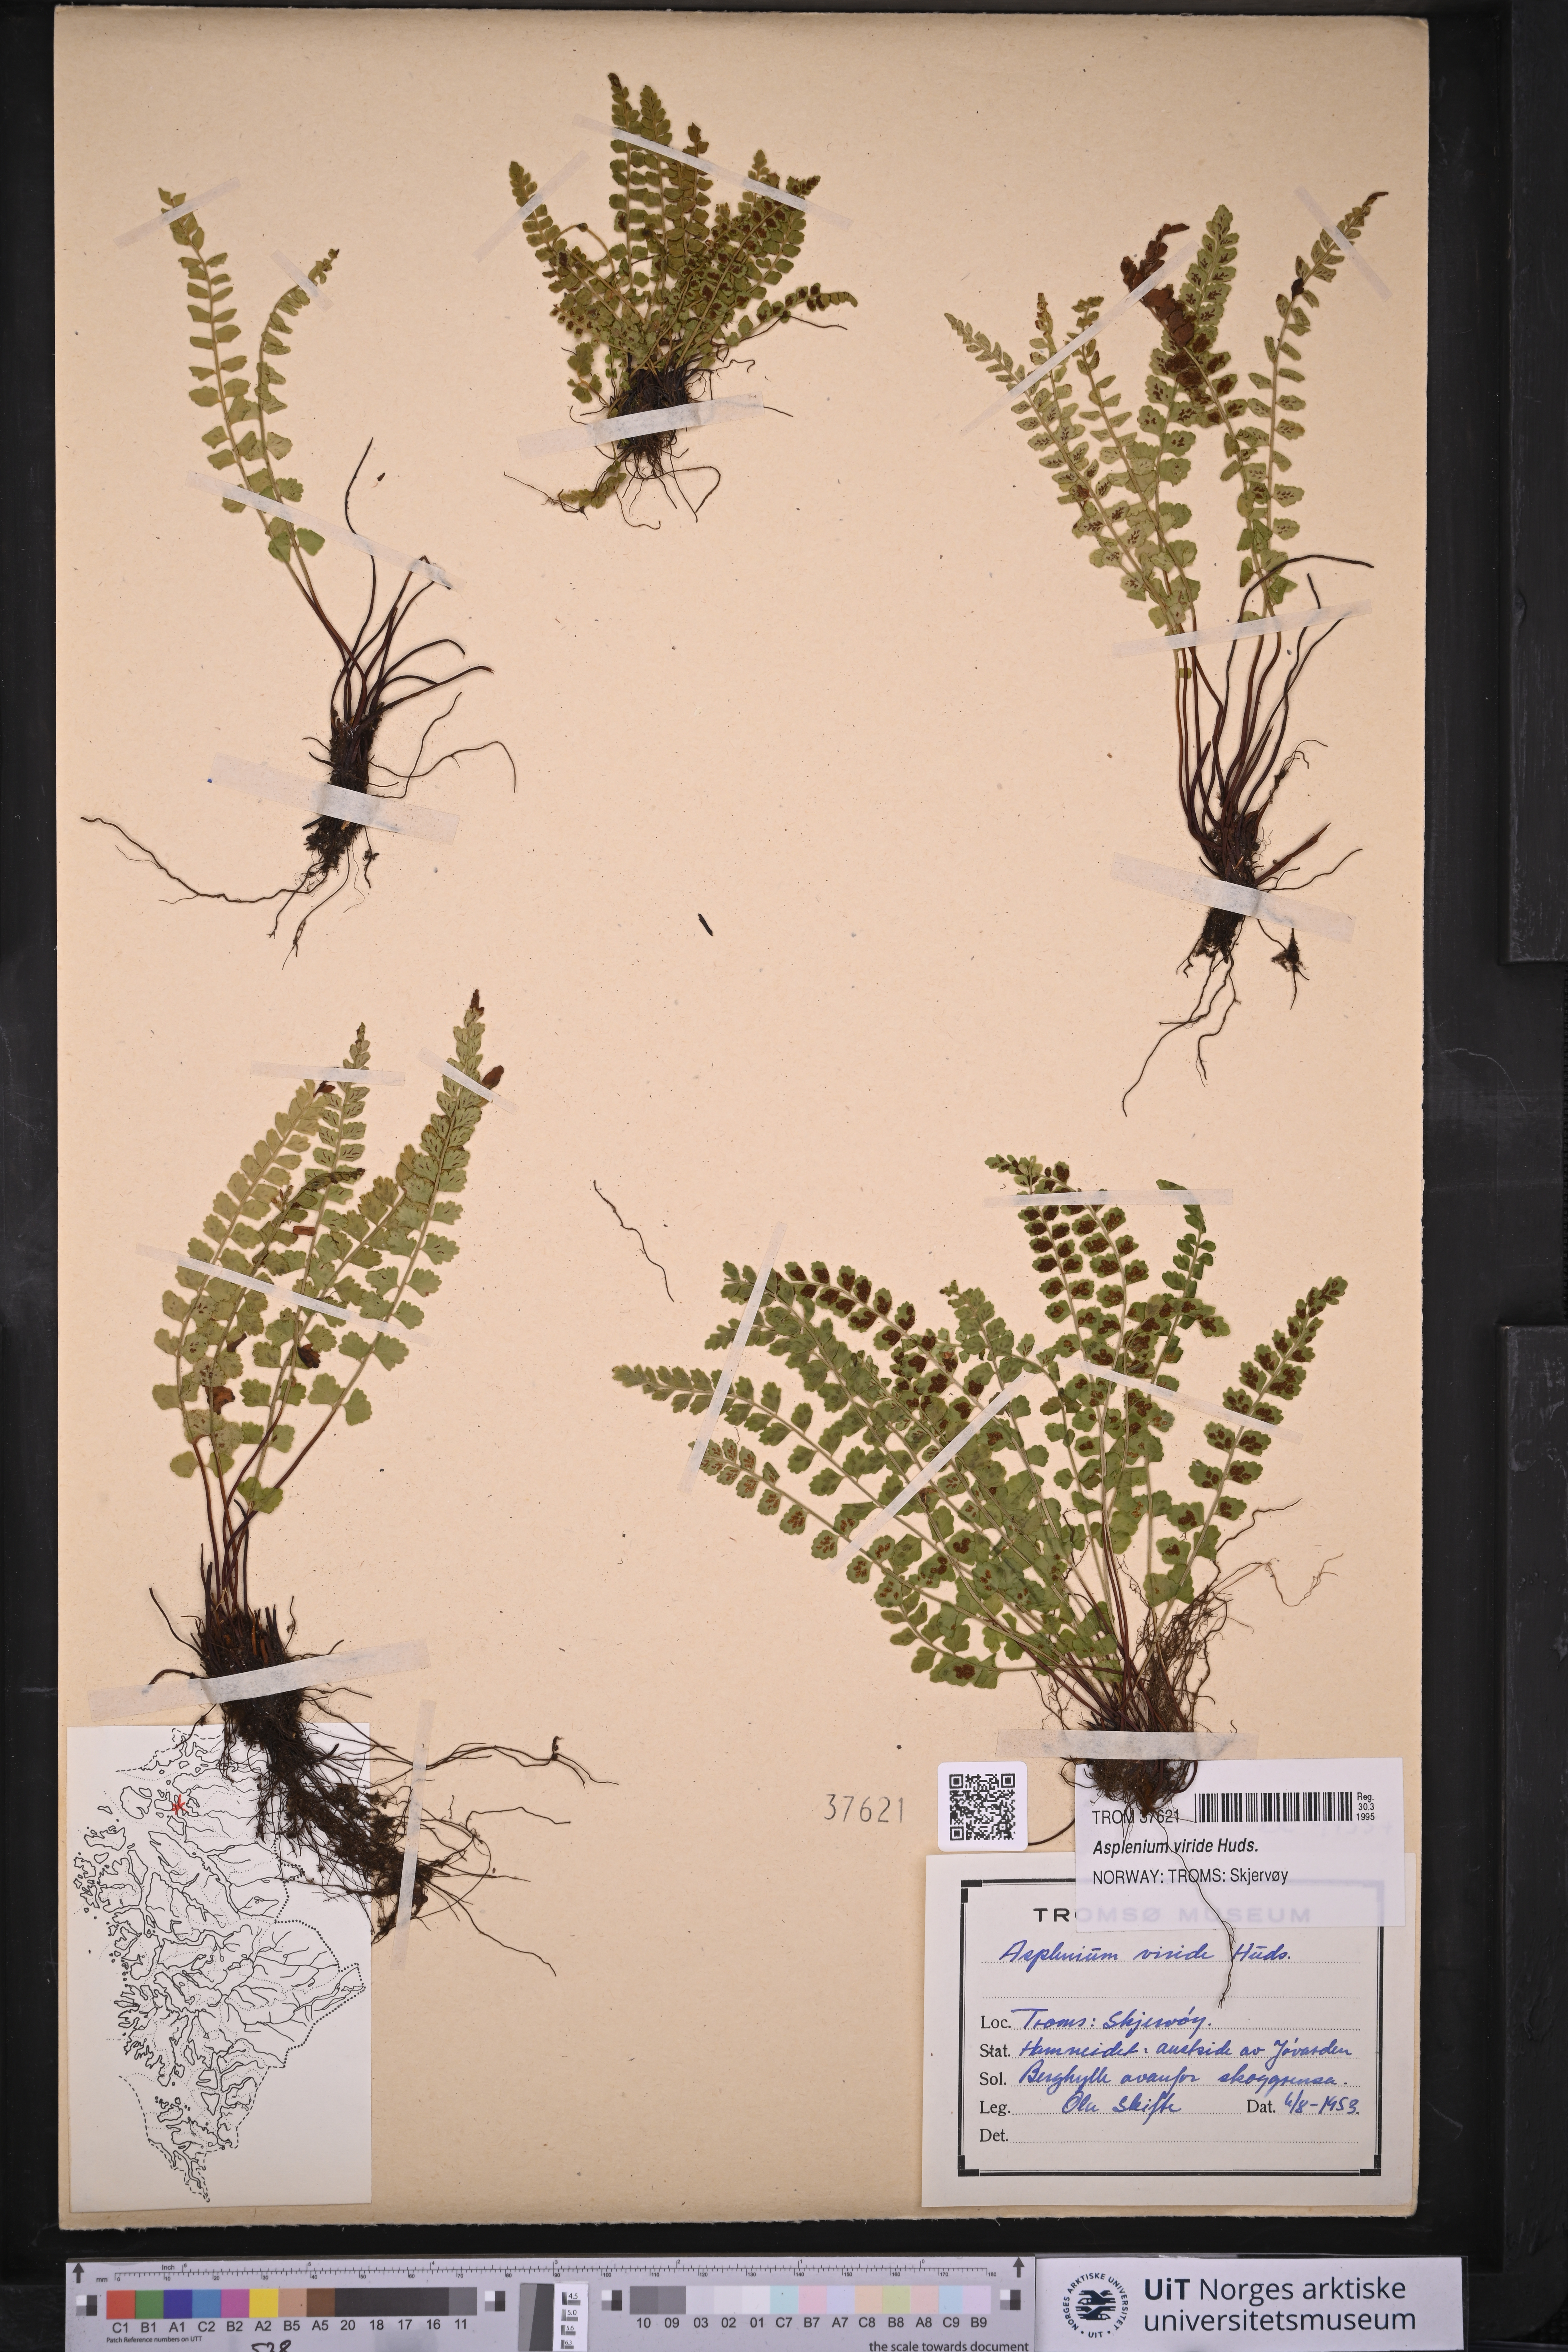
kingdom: Plantae
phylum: Tracheophyta
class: Polypodiopsida
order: Polypodiales
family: Aspleniaceae
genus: Asplenium
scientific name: Asplenium viride
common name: Green spleenwort
